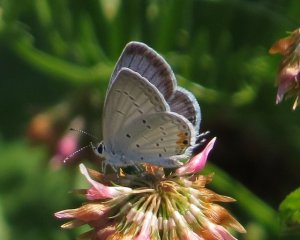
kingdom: Animalia
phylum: Arthropoda
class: Insecta
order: Lepidoptera
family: Lycaenidae
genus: Elkalyce
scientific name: Elkalyce comyntas
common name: Eastern Tailed-Blue
